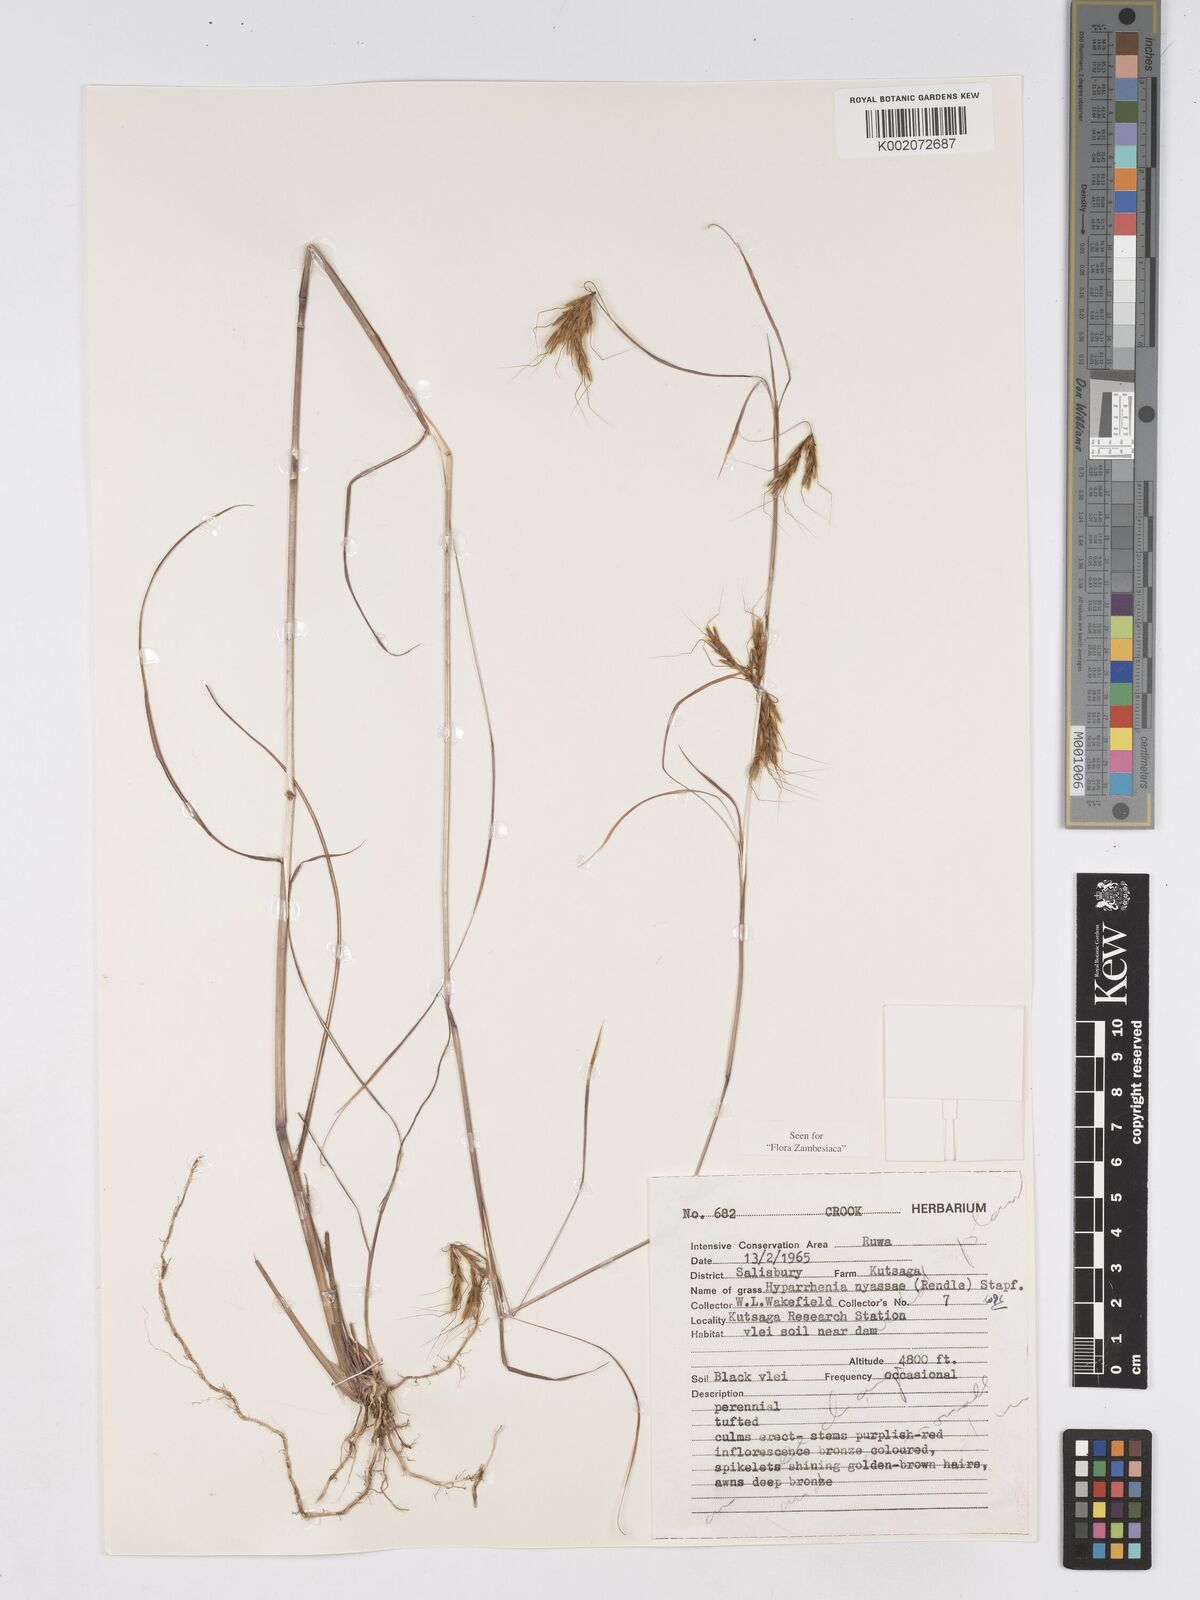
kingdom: Plantae
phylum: Tracheophyta
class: Liliopsida
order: Poales
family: Poaceae
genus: Hyparrhenia
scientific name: Hyparrhenia nyassae
